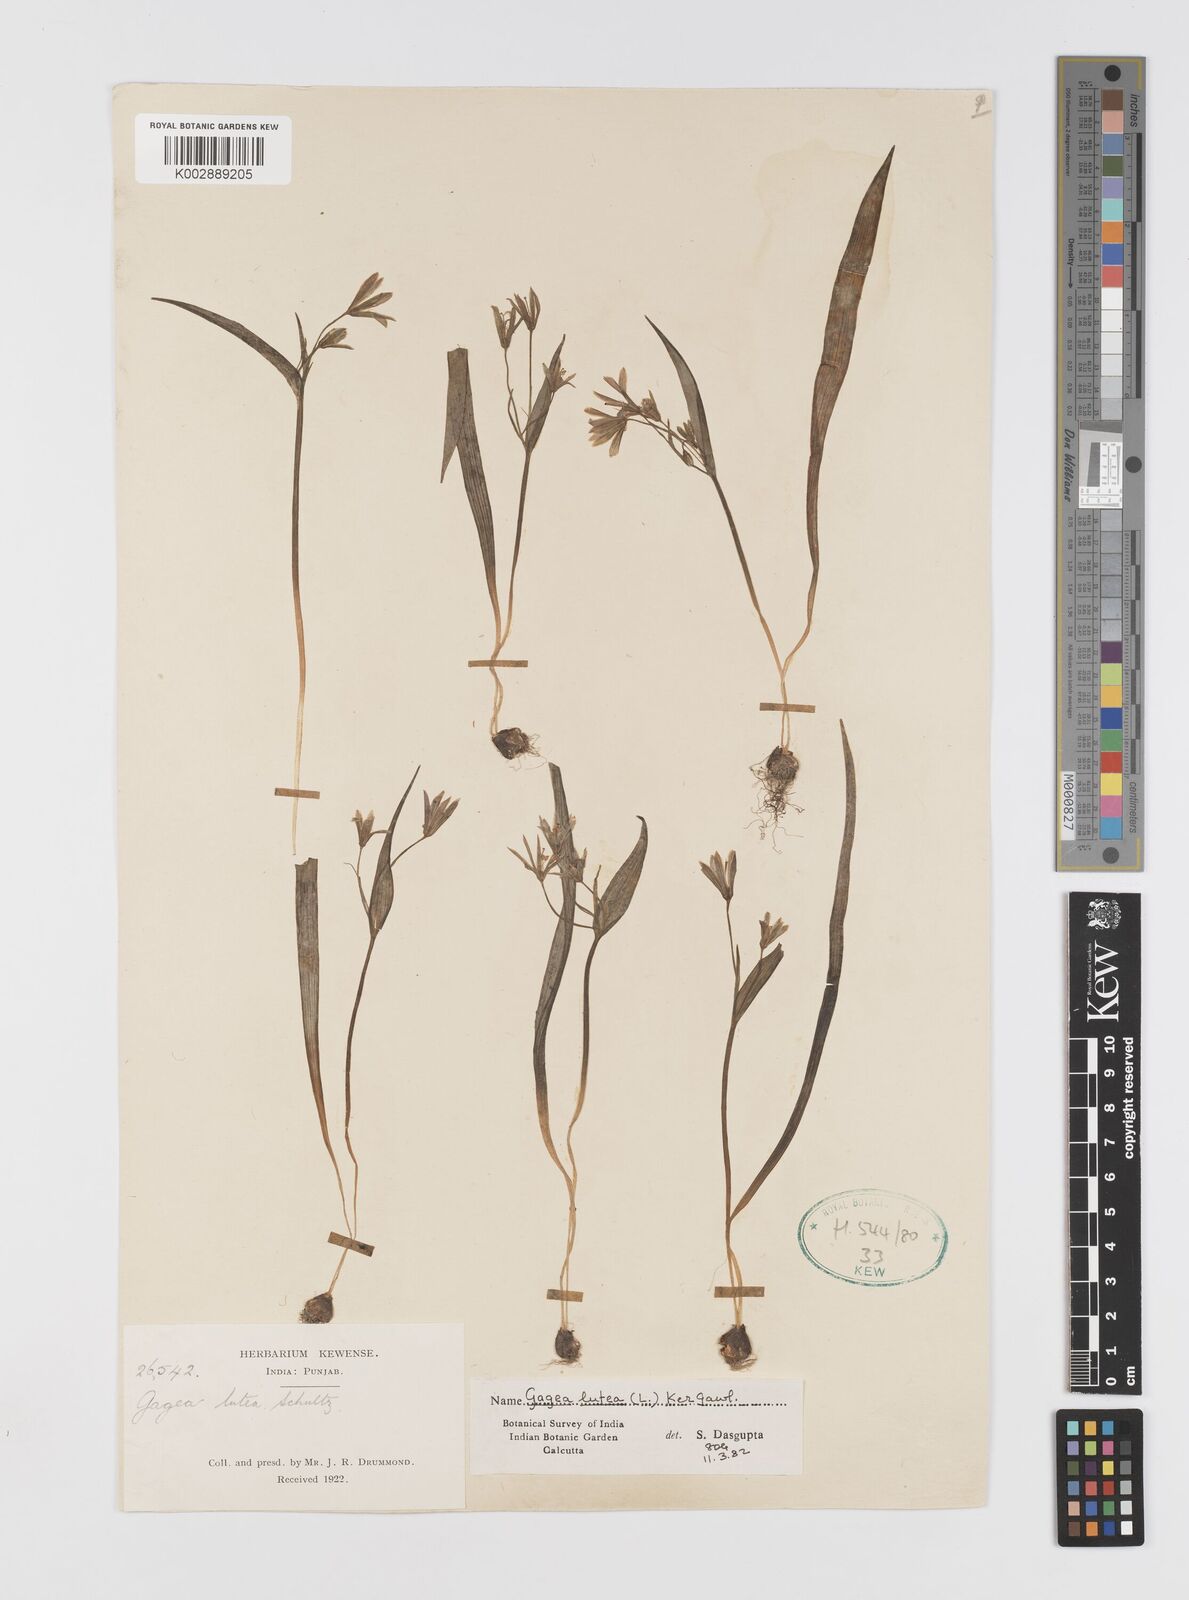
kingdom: Plantae
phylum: Tracheophyta
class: Liliopsida
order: Liliales
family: Liliaceae
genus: Gagea
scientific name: Gagea lutea
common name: Yellow star-of-bethlehem
